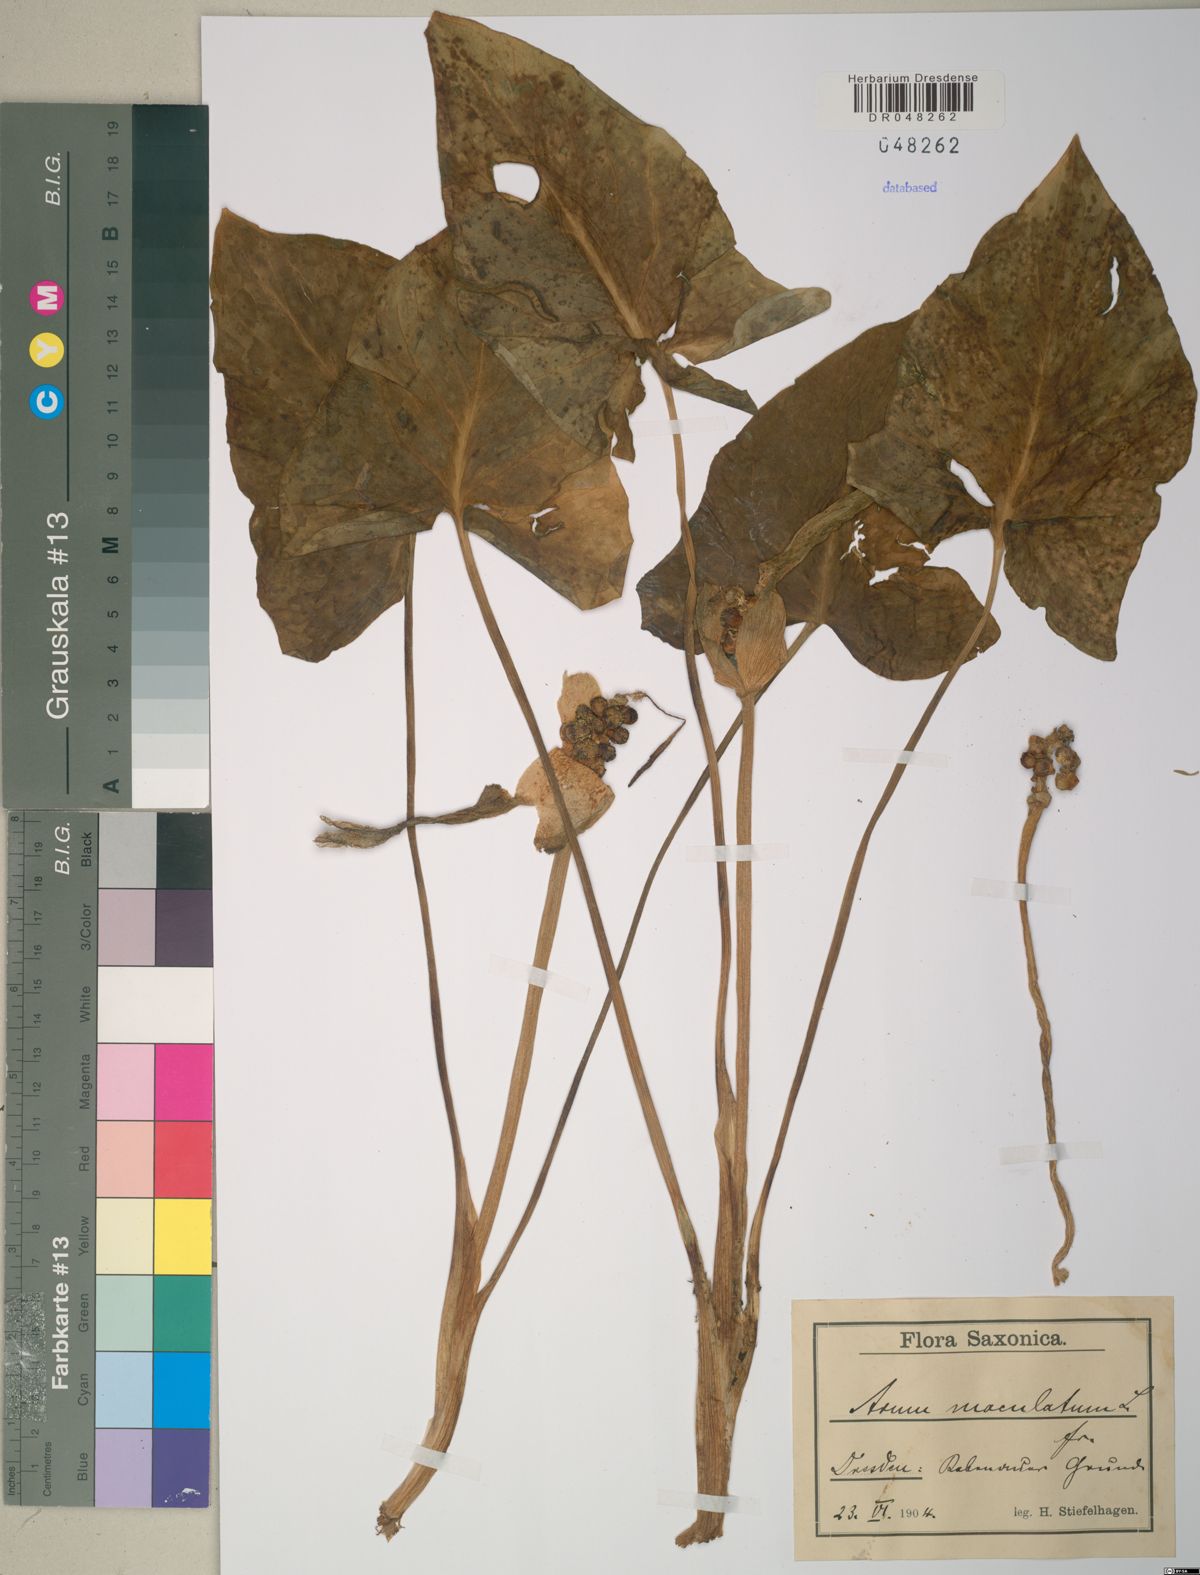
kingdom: Plantae
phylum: Tracheophyta
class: Liliopsida
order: Alismatales
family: Araceae
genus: Arum
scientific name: Arum maculatum
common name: Lords-and-ladies
